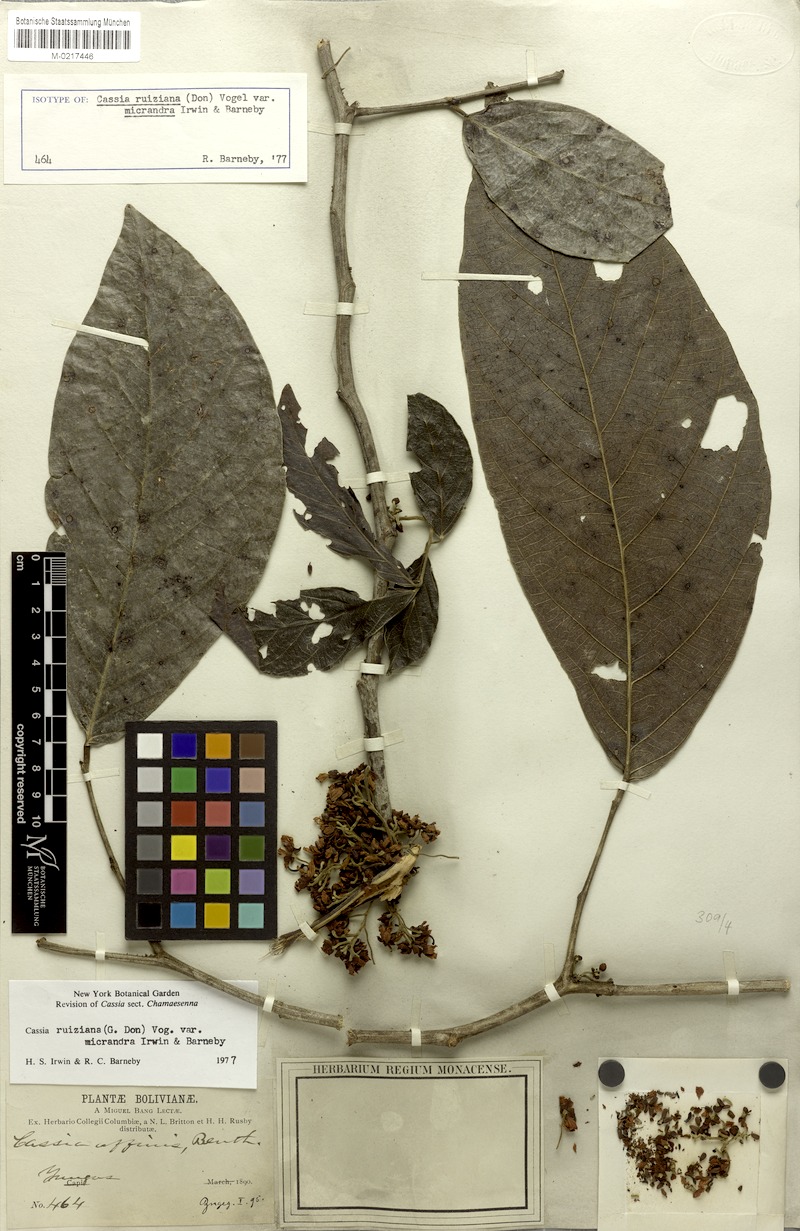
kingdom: Plantae
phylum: Tracheophyta
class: Magnoliopsida
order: Fabales
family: Fabaceae
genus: Senna
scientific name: Senna ruiziana
